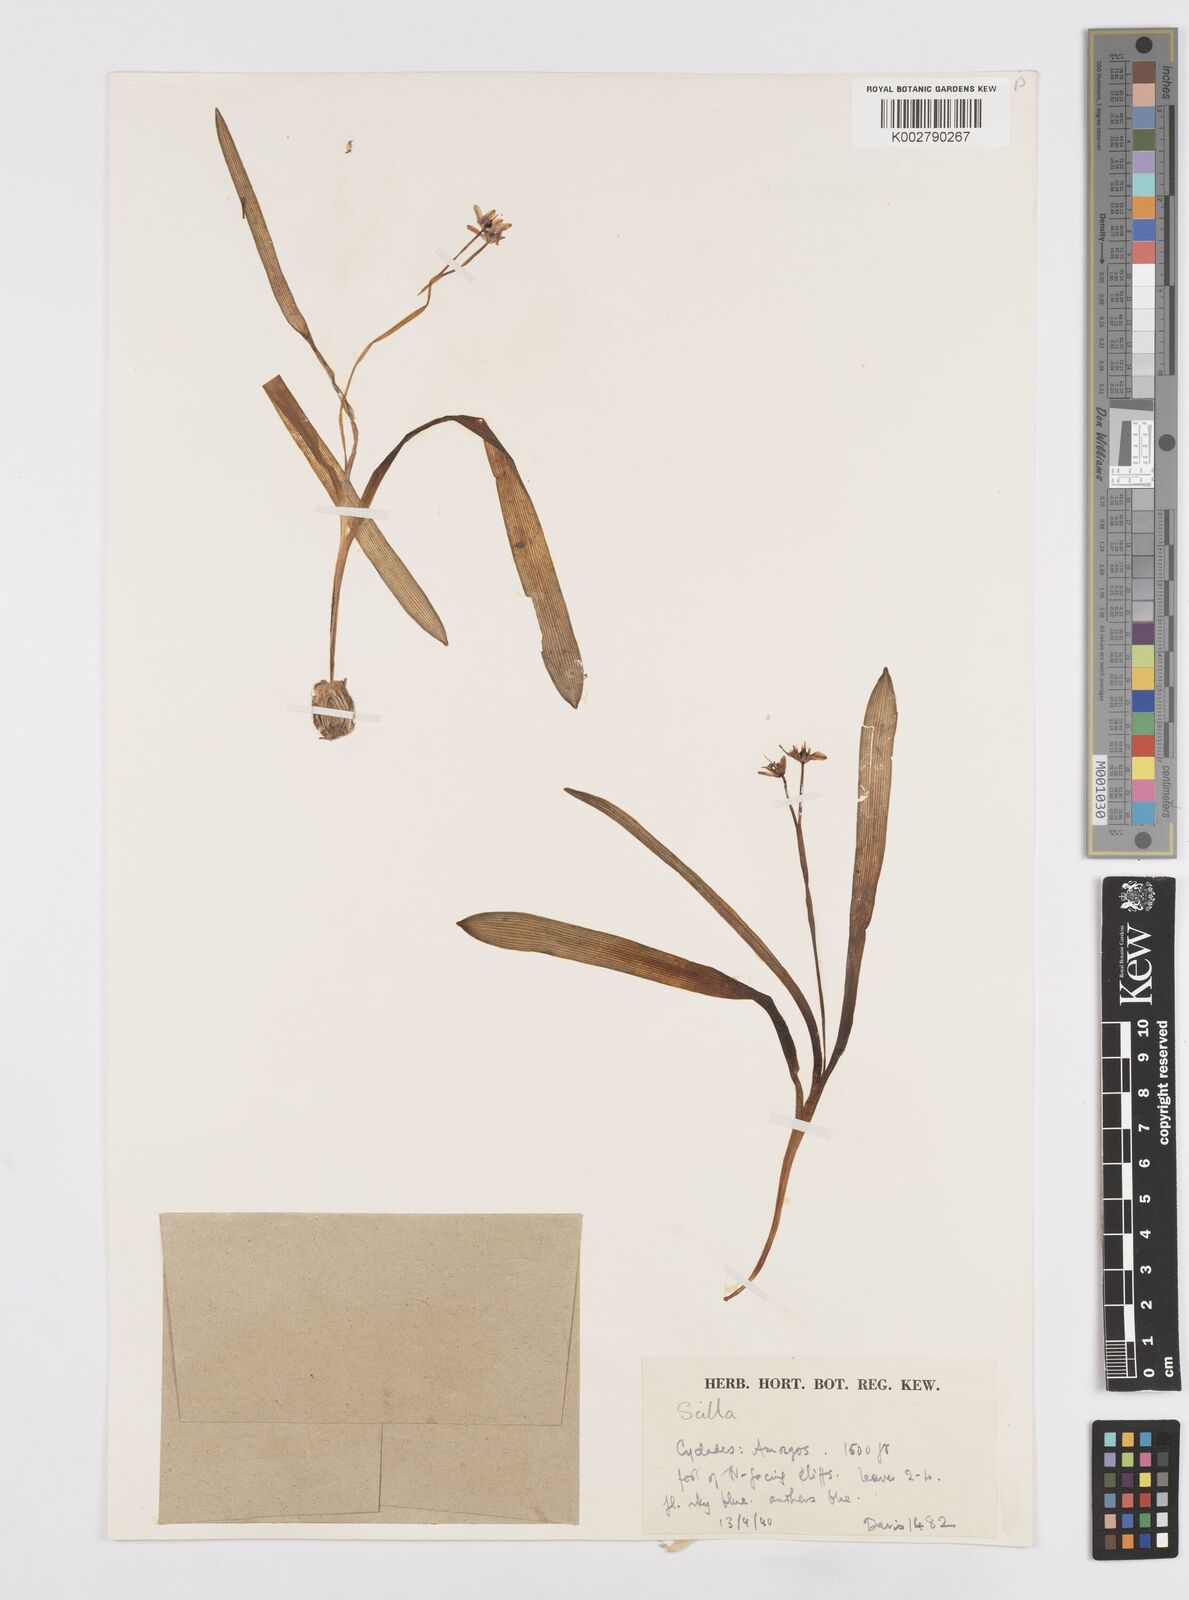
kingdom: Plantae
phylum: Tracheophyta
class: Liliopsida
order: Asparagales
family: Asparagaceae
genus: Scilla
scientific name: Scilla bifolia
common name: Alpine squill
